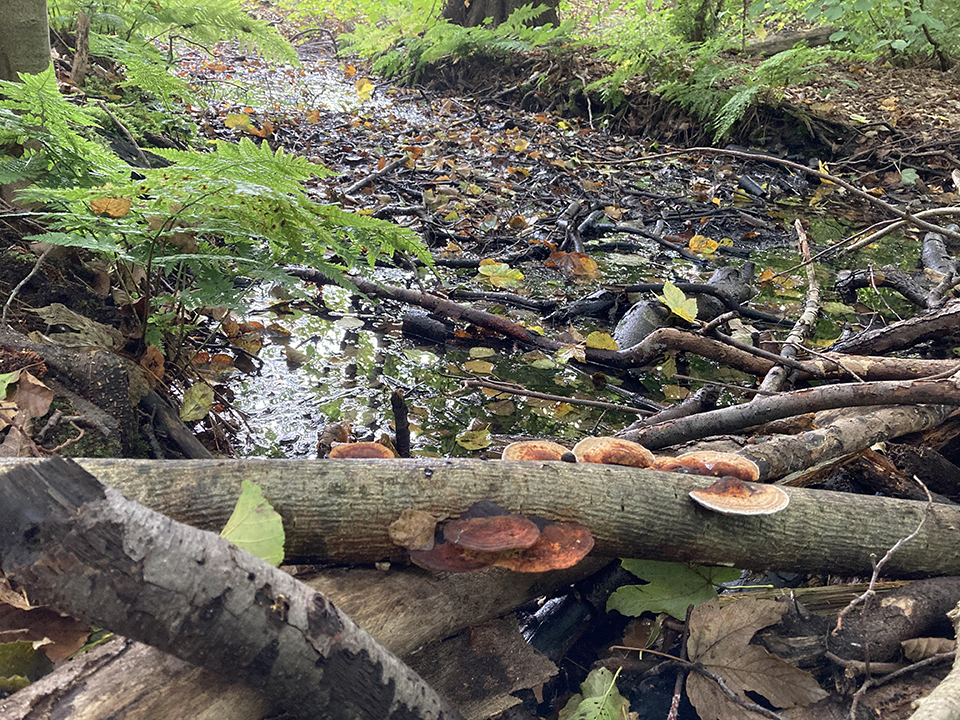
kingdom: Fungi
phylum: Basidiomycota
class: Agaricomycetes
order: Polyporales
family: Polyporaceae
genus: Daedaleopsis
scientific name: Daedaleopsis confragosa
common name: rødmende læderporesvamp
